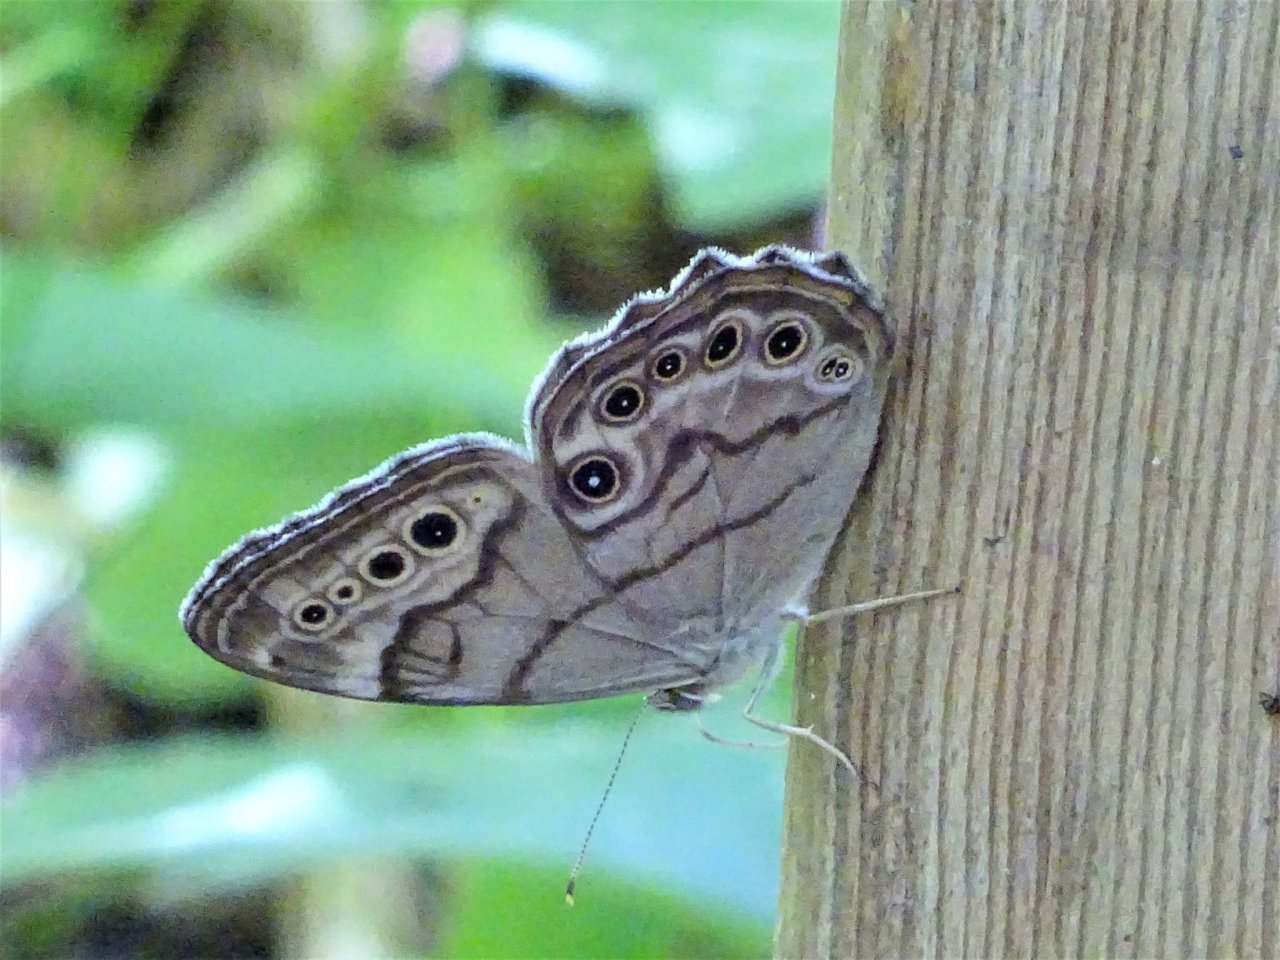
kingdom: Animalia
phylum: Arthropoda
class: Insecta
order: Lepidoptera
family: Nymphalidae
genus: Lethe
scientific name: Lethe anthedon
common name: Northern Pearly-Eye
